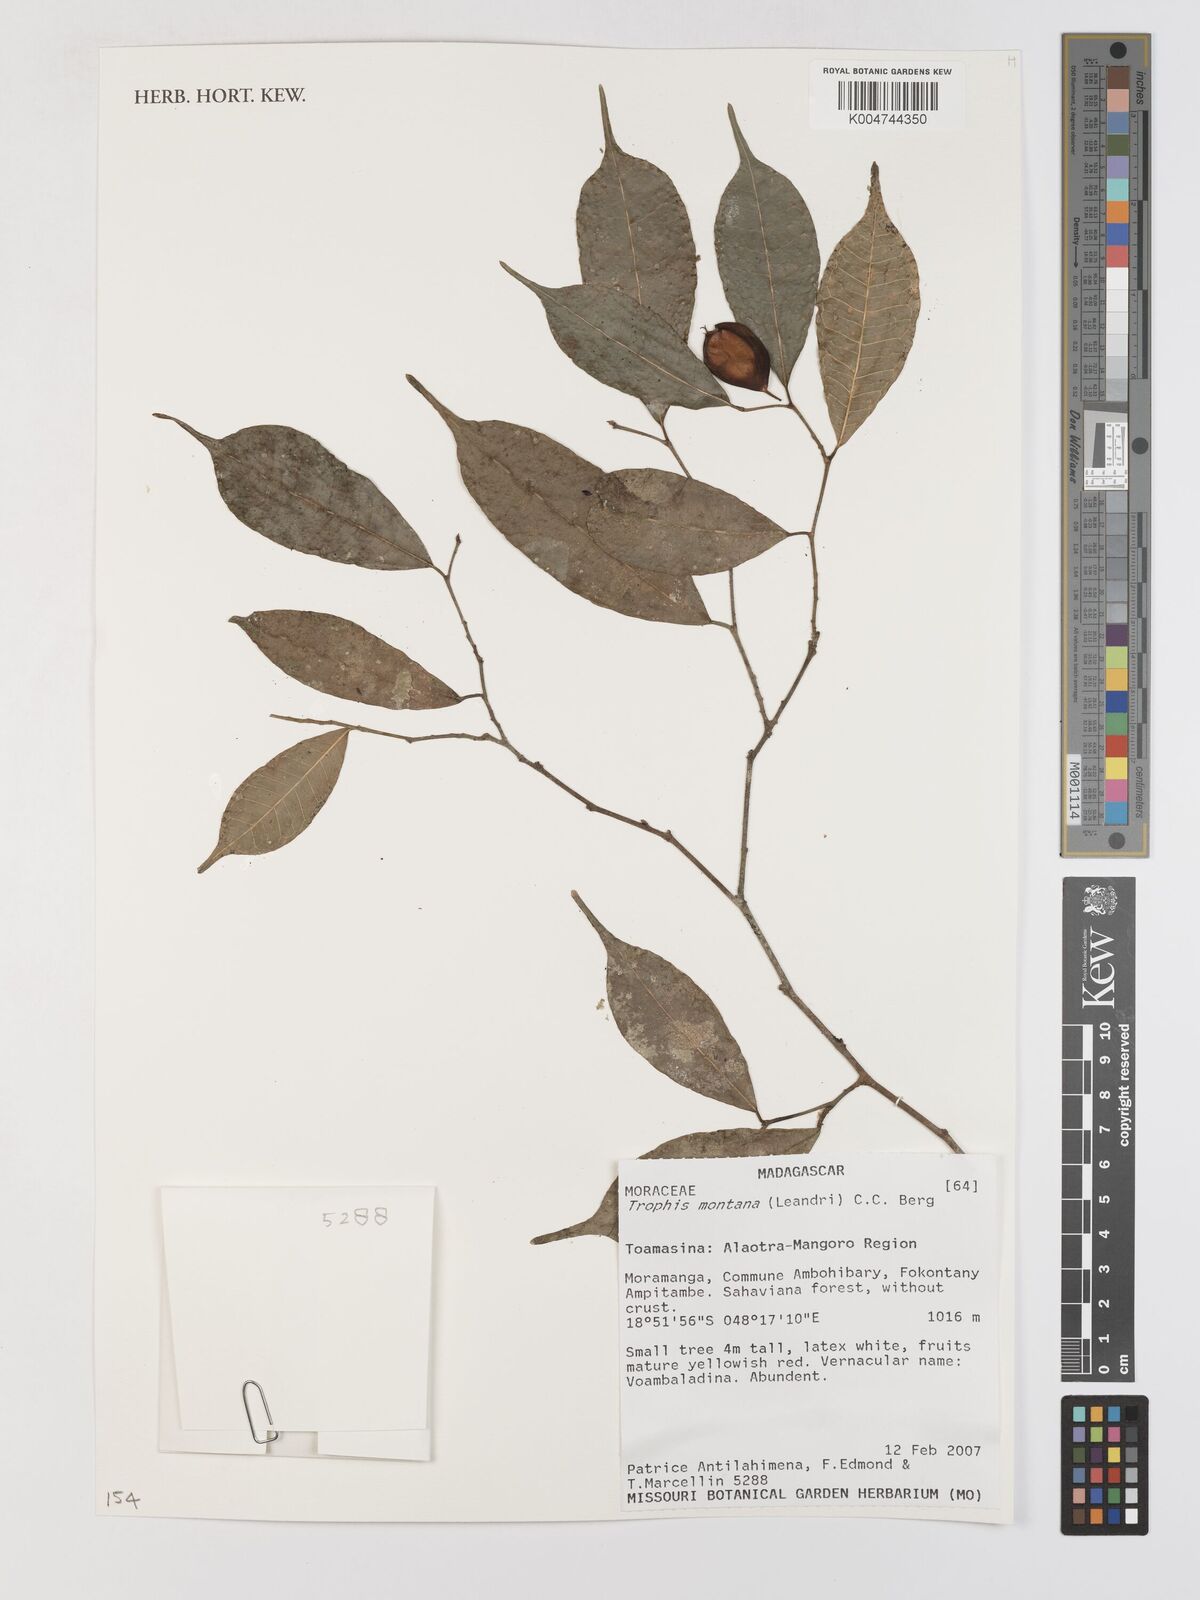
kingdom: Plantae
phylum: Tracheophyta
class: Magnoliopsida
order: Rosales
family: Moraceae
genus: Maillardia
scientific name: Maillardia montana
